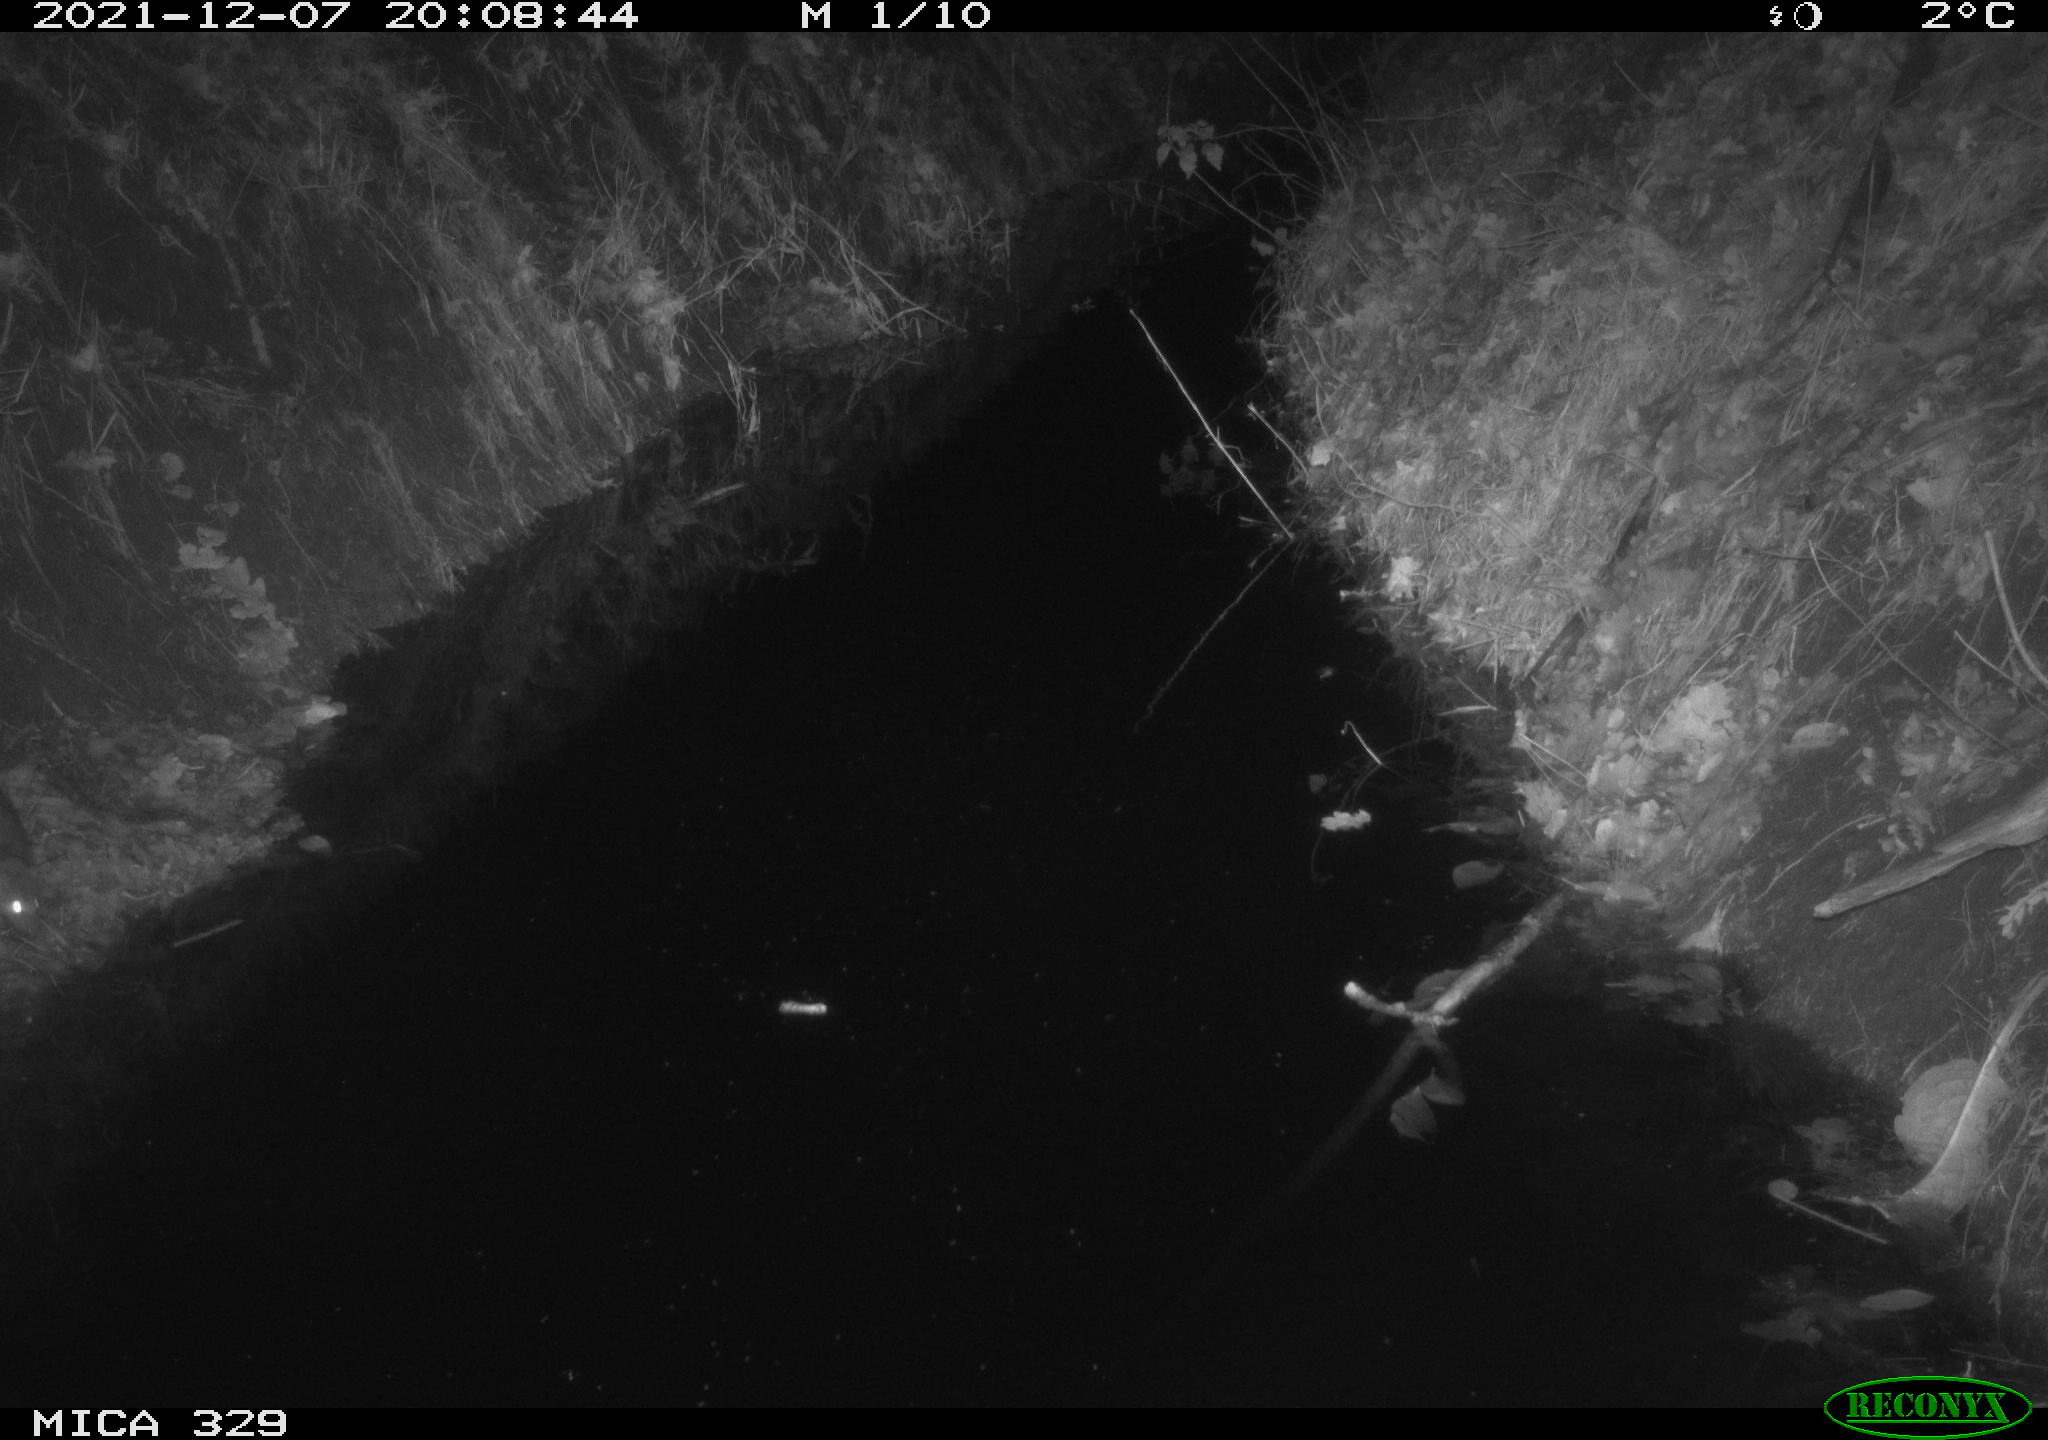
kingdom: Animalia
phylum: Chordata
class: Mammalia
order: Rodentia
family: Muridae
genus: Rattus
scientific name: Rattus norvegicus
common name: Brown rat
